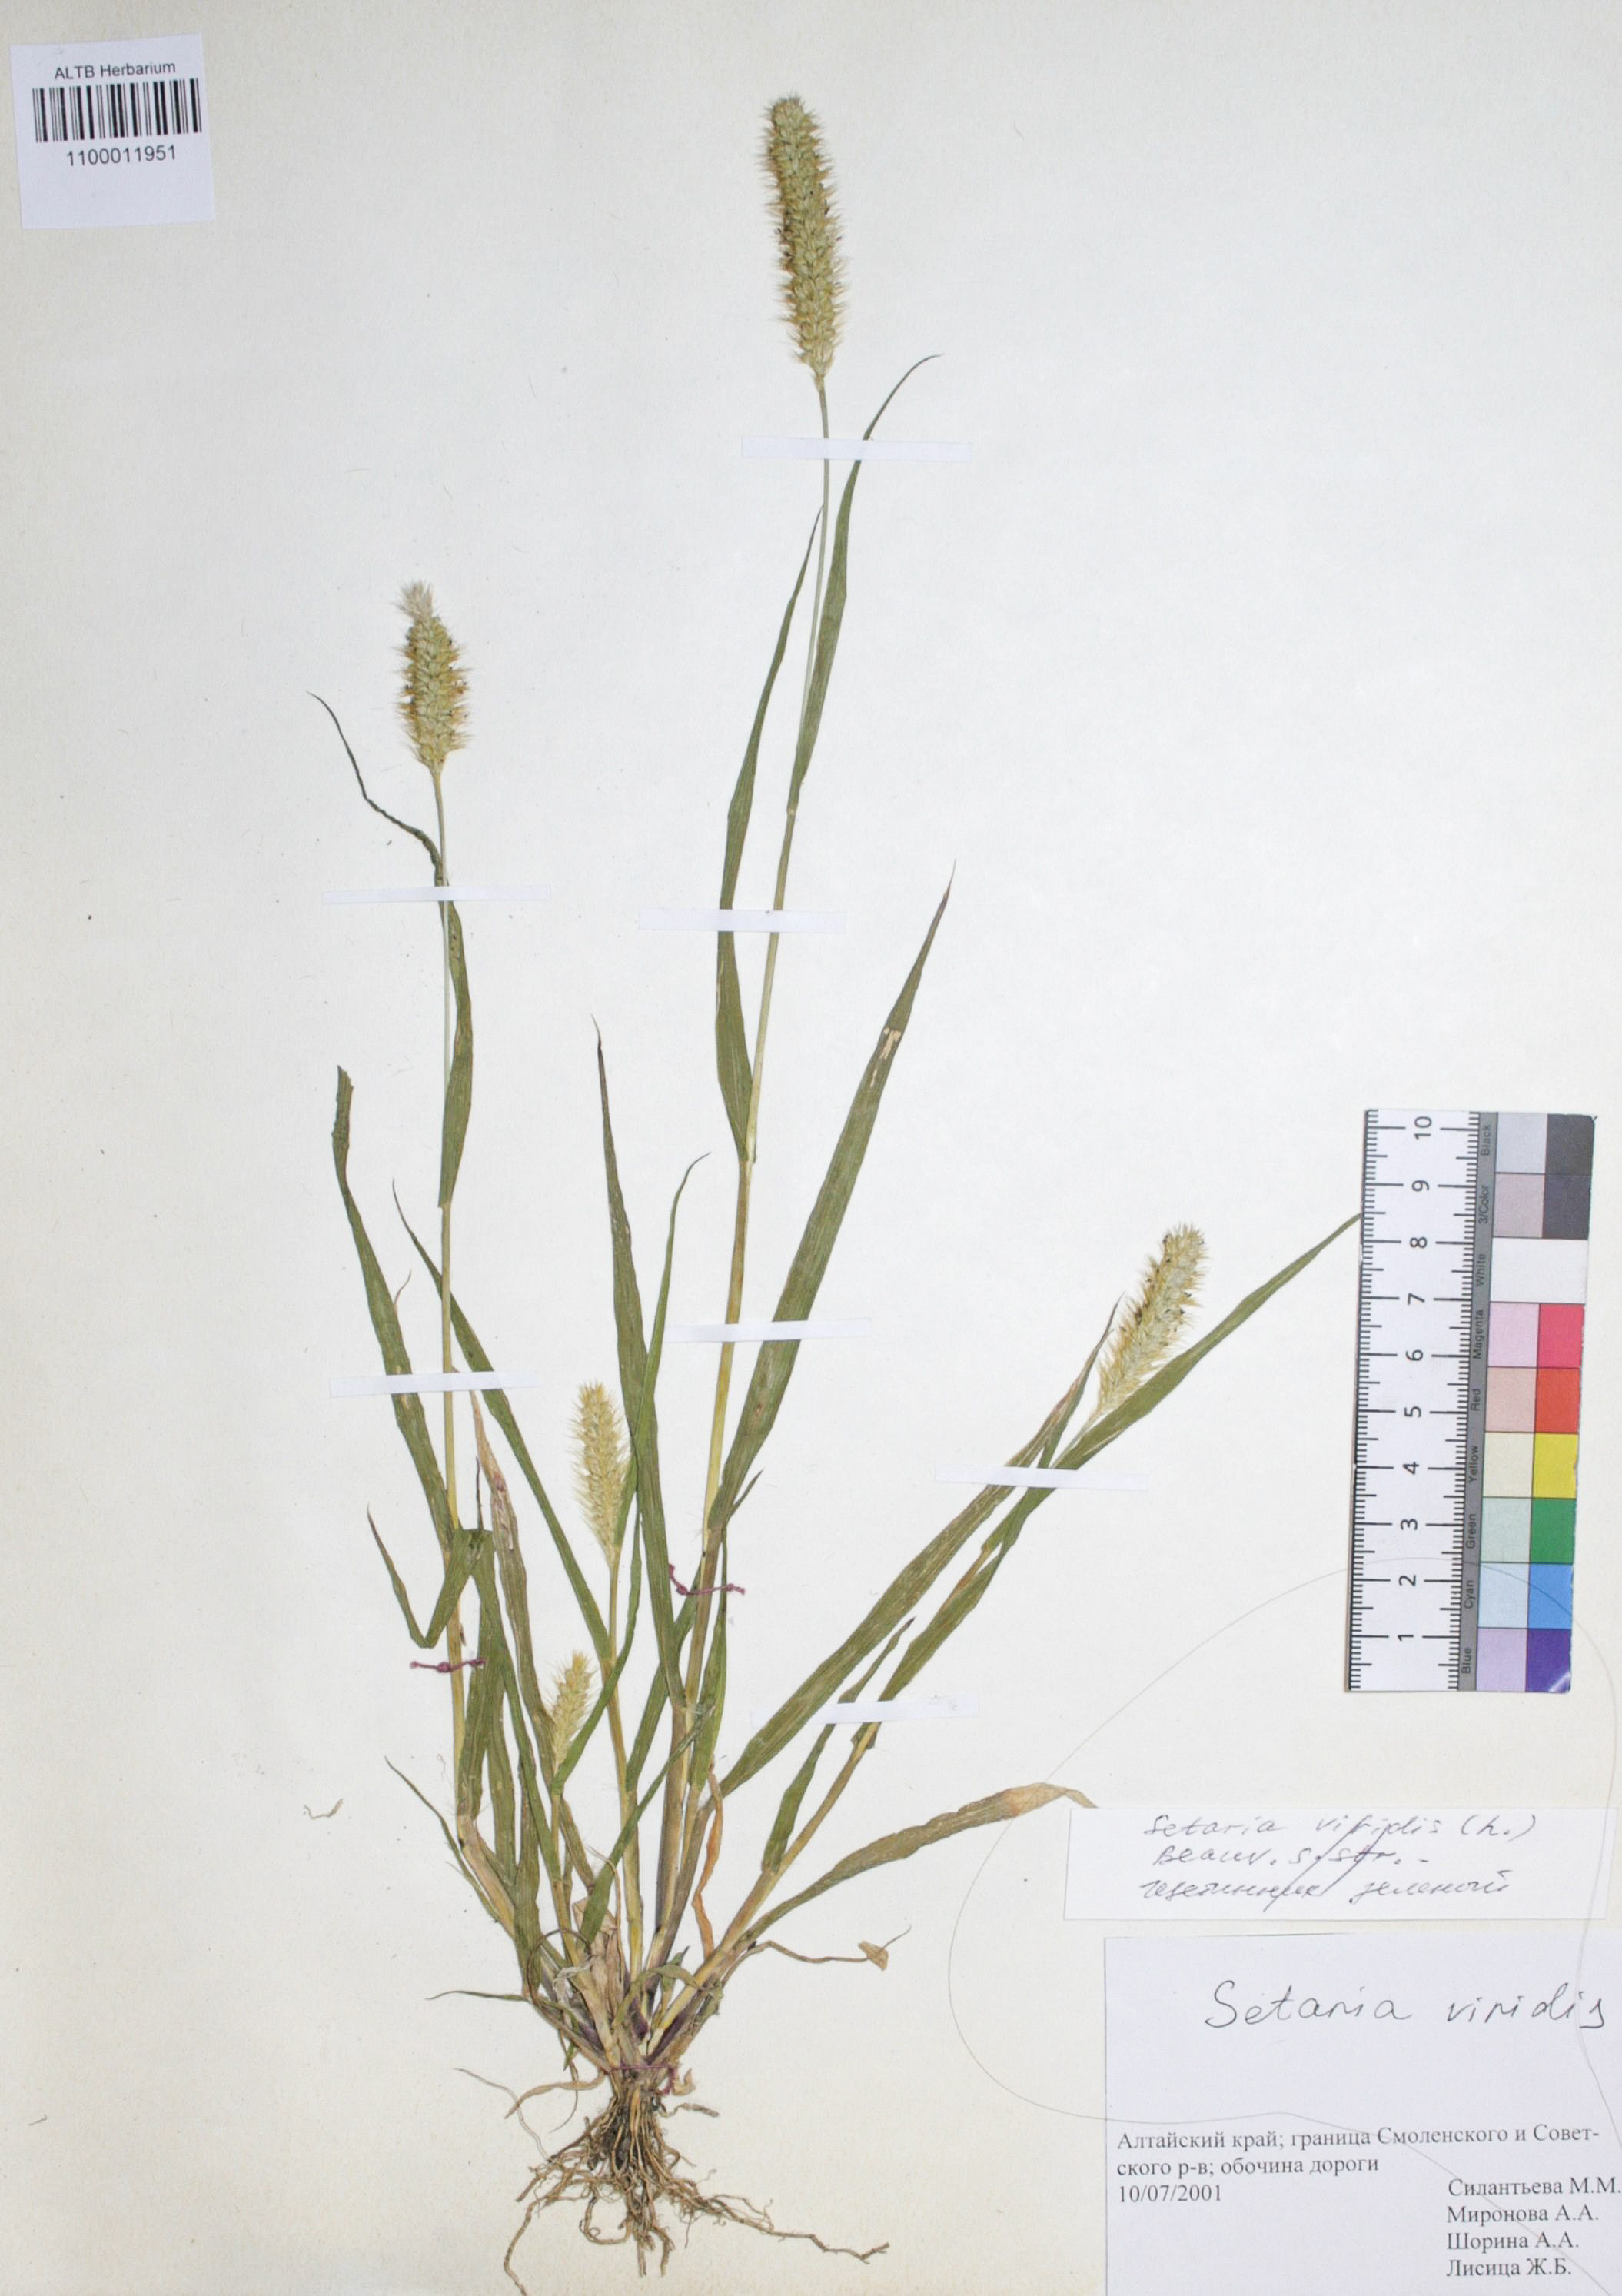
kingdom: Plantae
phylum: Tracheophyta
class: Liliopsida
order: Poales
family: Poaceae
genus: Setaria
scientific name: Setaria viridis
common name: Green bristlegrass
